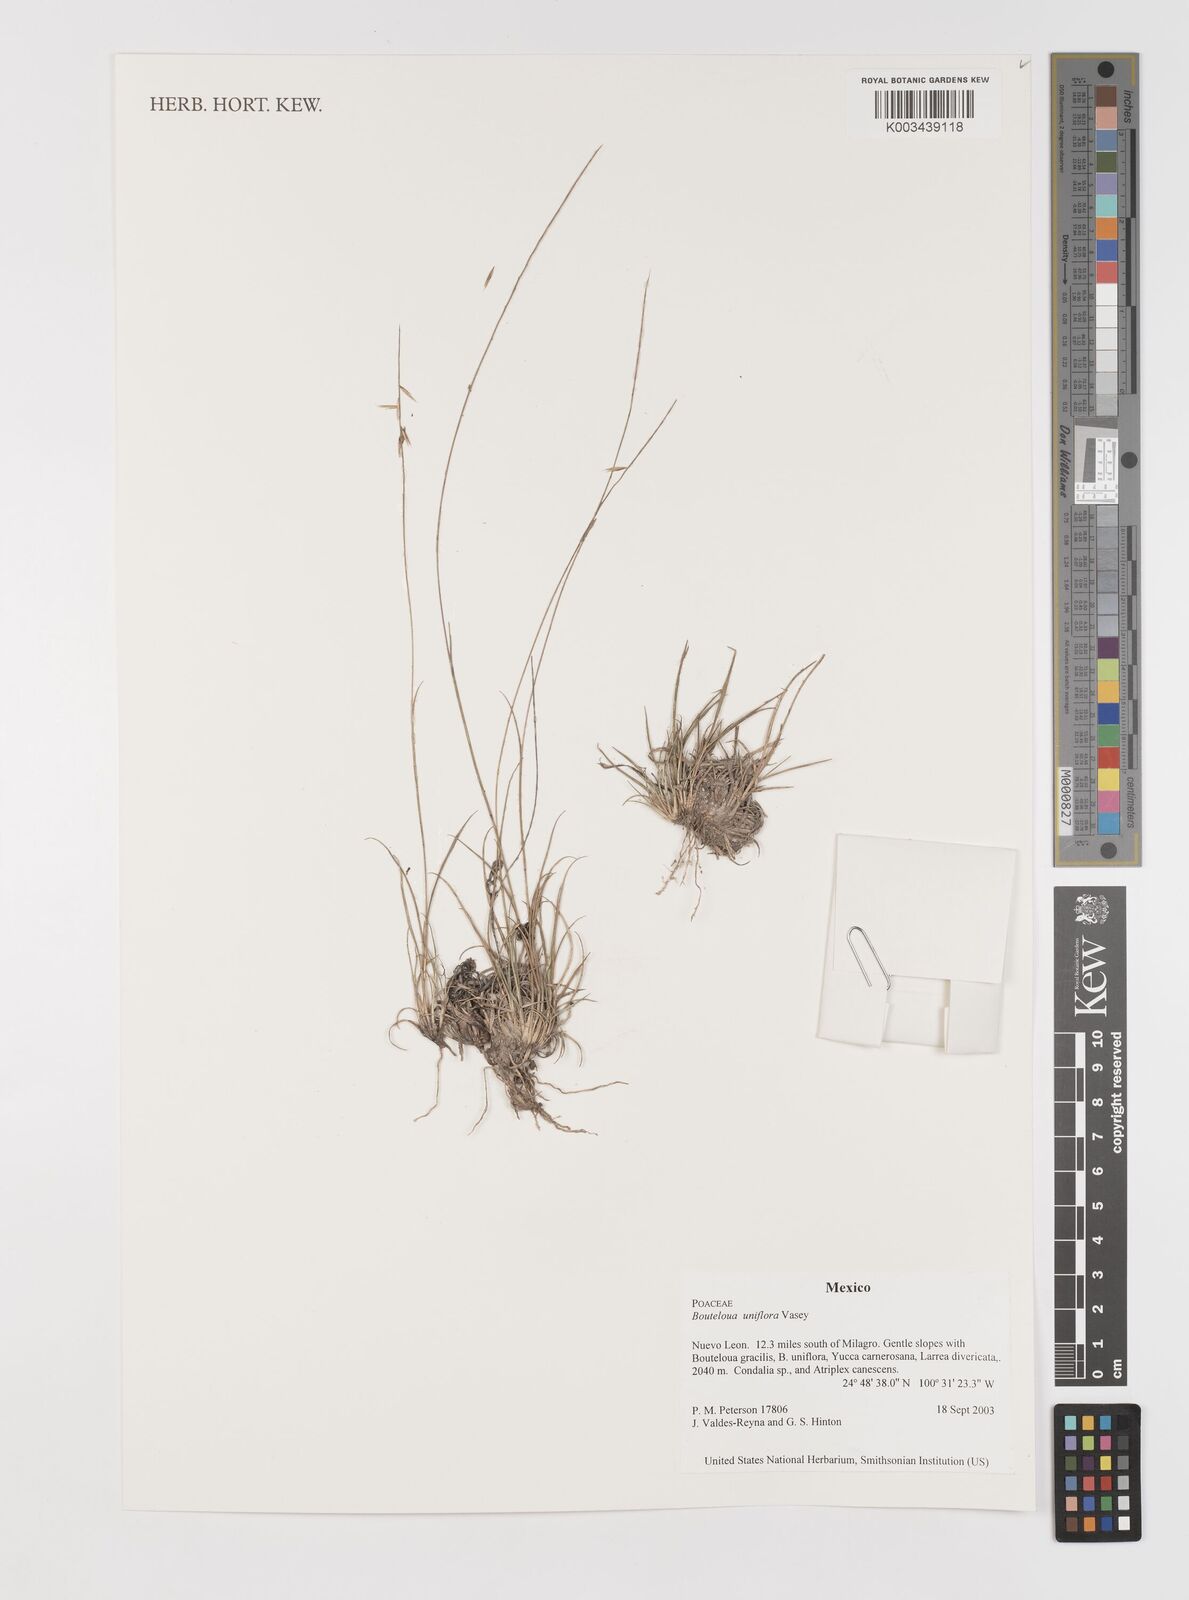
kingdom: Plantae
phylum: Tracheophyta
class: Liliopsida
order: Poales
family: Poaceae
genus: Bouteloua
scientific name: Bouteloua uniflora
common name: Neally's grama
